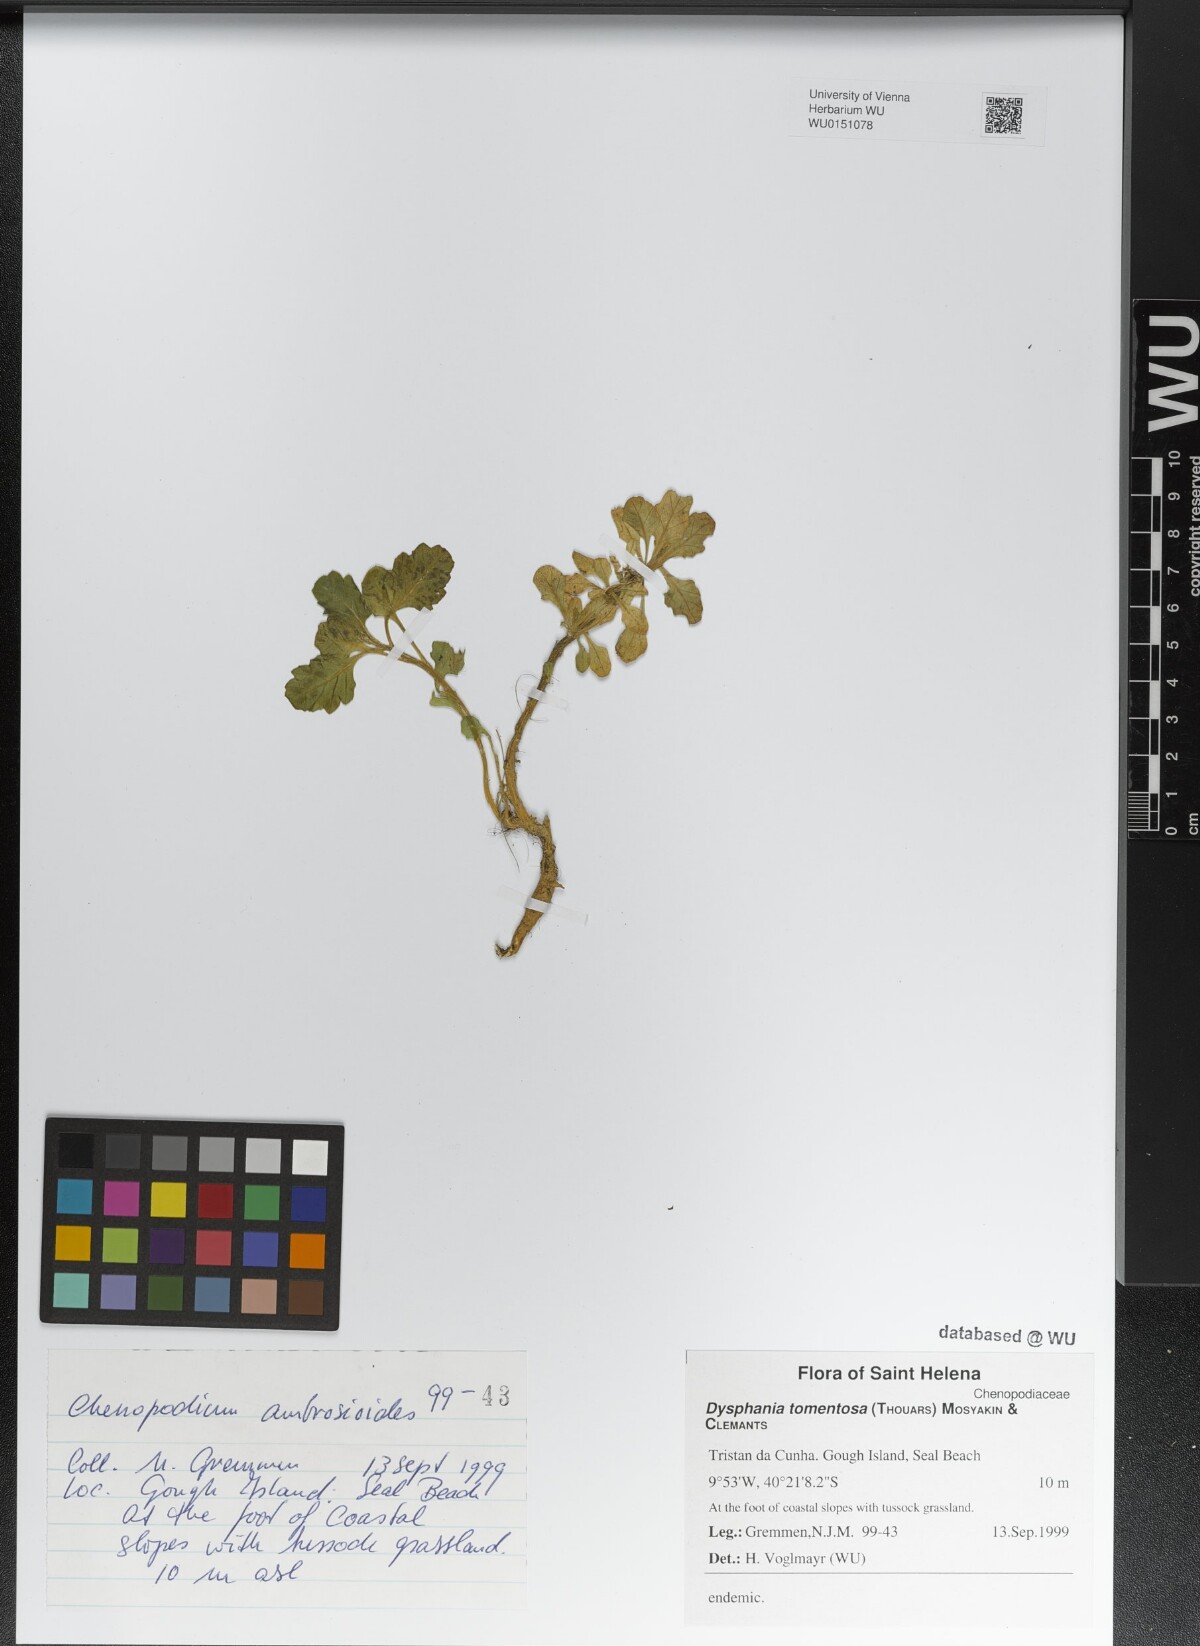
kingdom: Plantae
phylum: Tracheophyta
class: Magnoliopsida
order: Caryophyllales
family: Amaranthaceae
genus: Dysphania
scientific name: Dysphania tomentosa
